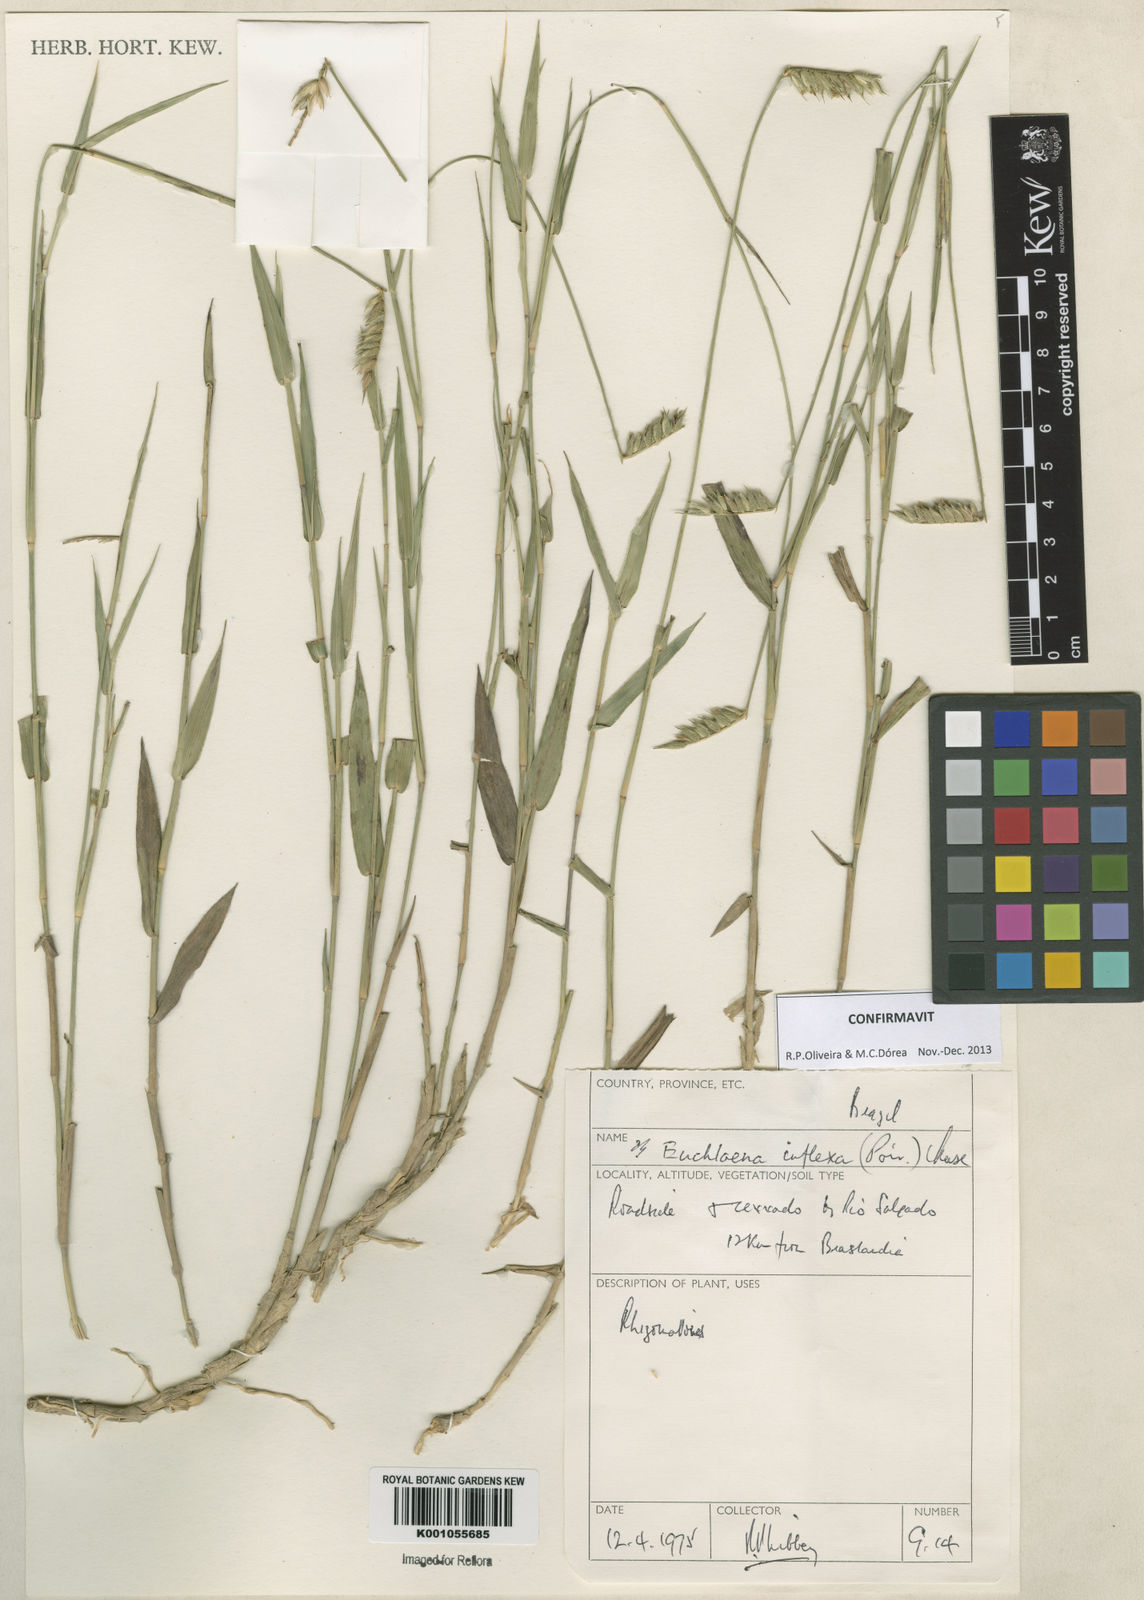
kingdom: Plantae
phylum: Tracheophyta
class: Liliopsida
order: Poales
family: Poaceae
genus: Echinolaena
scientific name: Echinolaena inflexa
